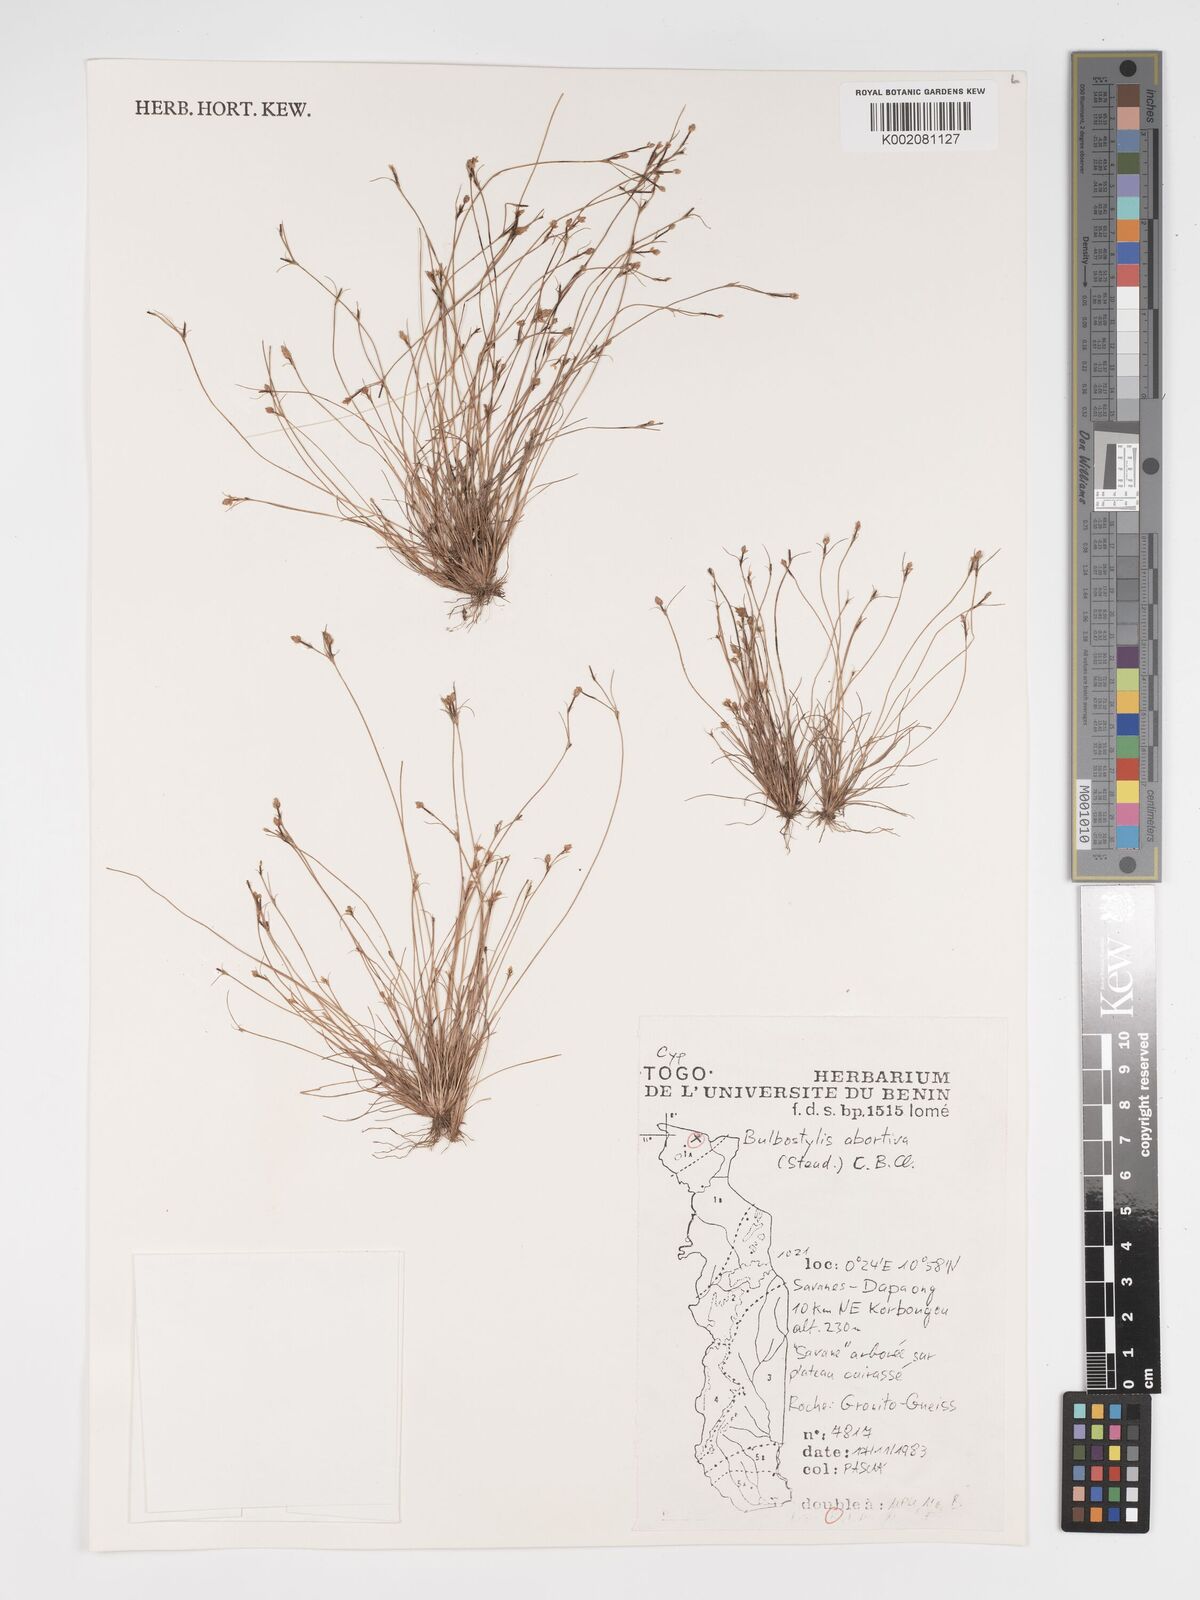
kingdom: Plantae
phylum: Tracheophyta
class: Liliopsida
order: Poales
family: Cyperaceae
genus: Bulbostylis
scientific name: Bulbostylis abortiva
